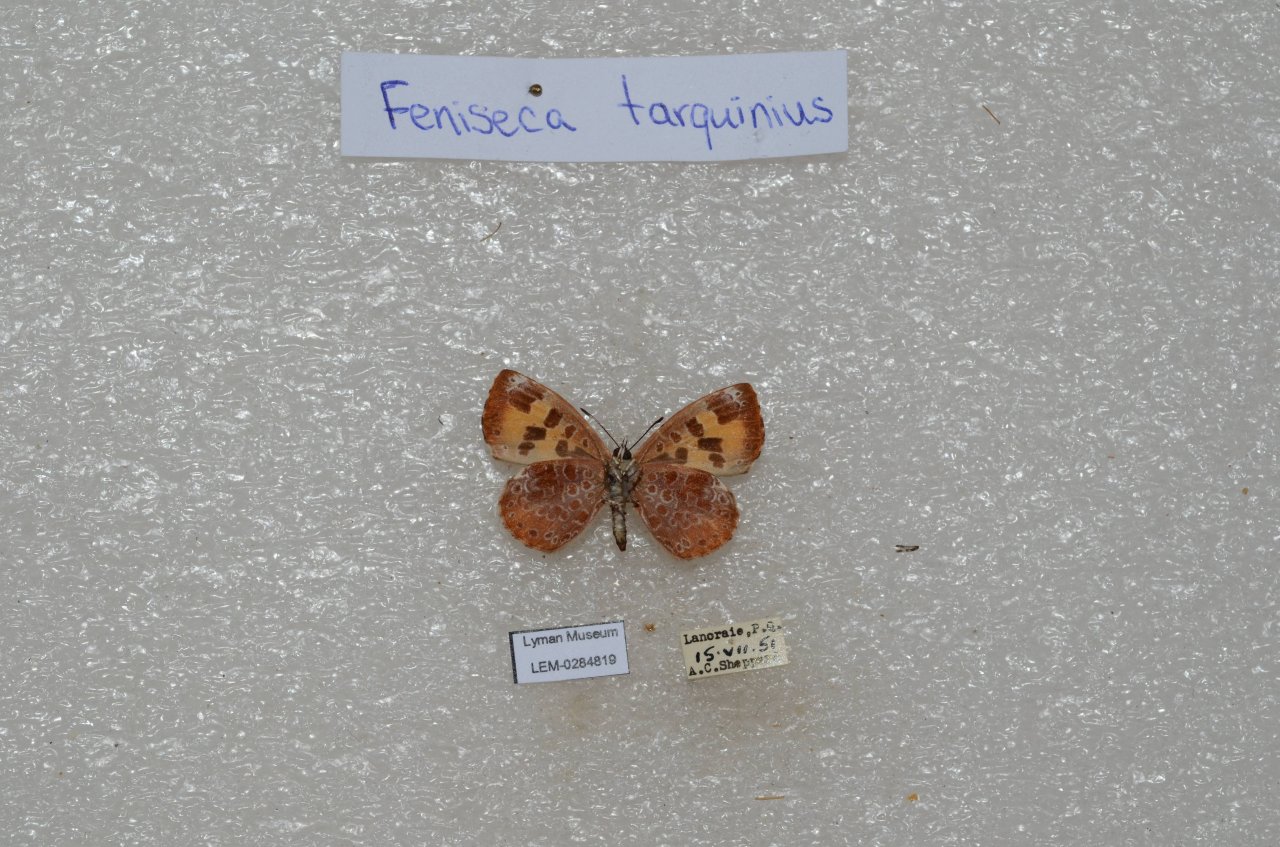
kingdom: Animalia
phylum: Arthropoda
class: Insecta
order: Lepidoptera
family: Lycaenidae
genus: Feniseca
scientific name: Feniseca tarquinius
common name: Harvester
